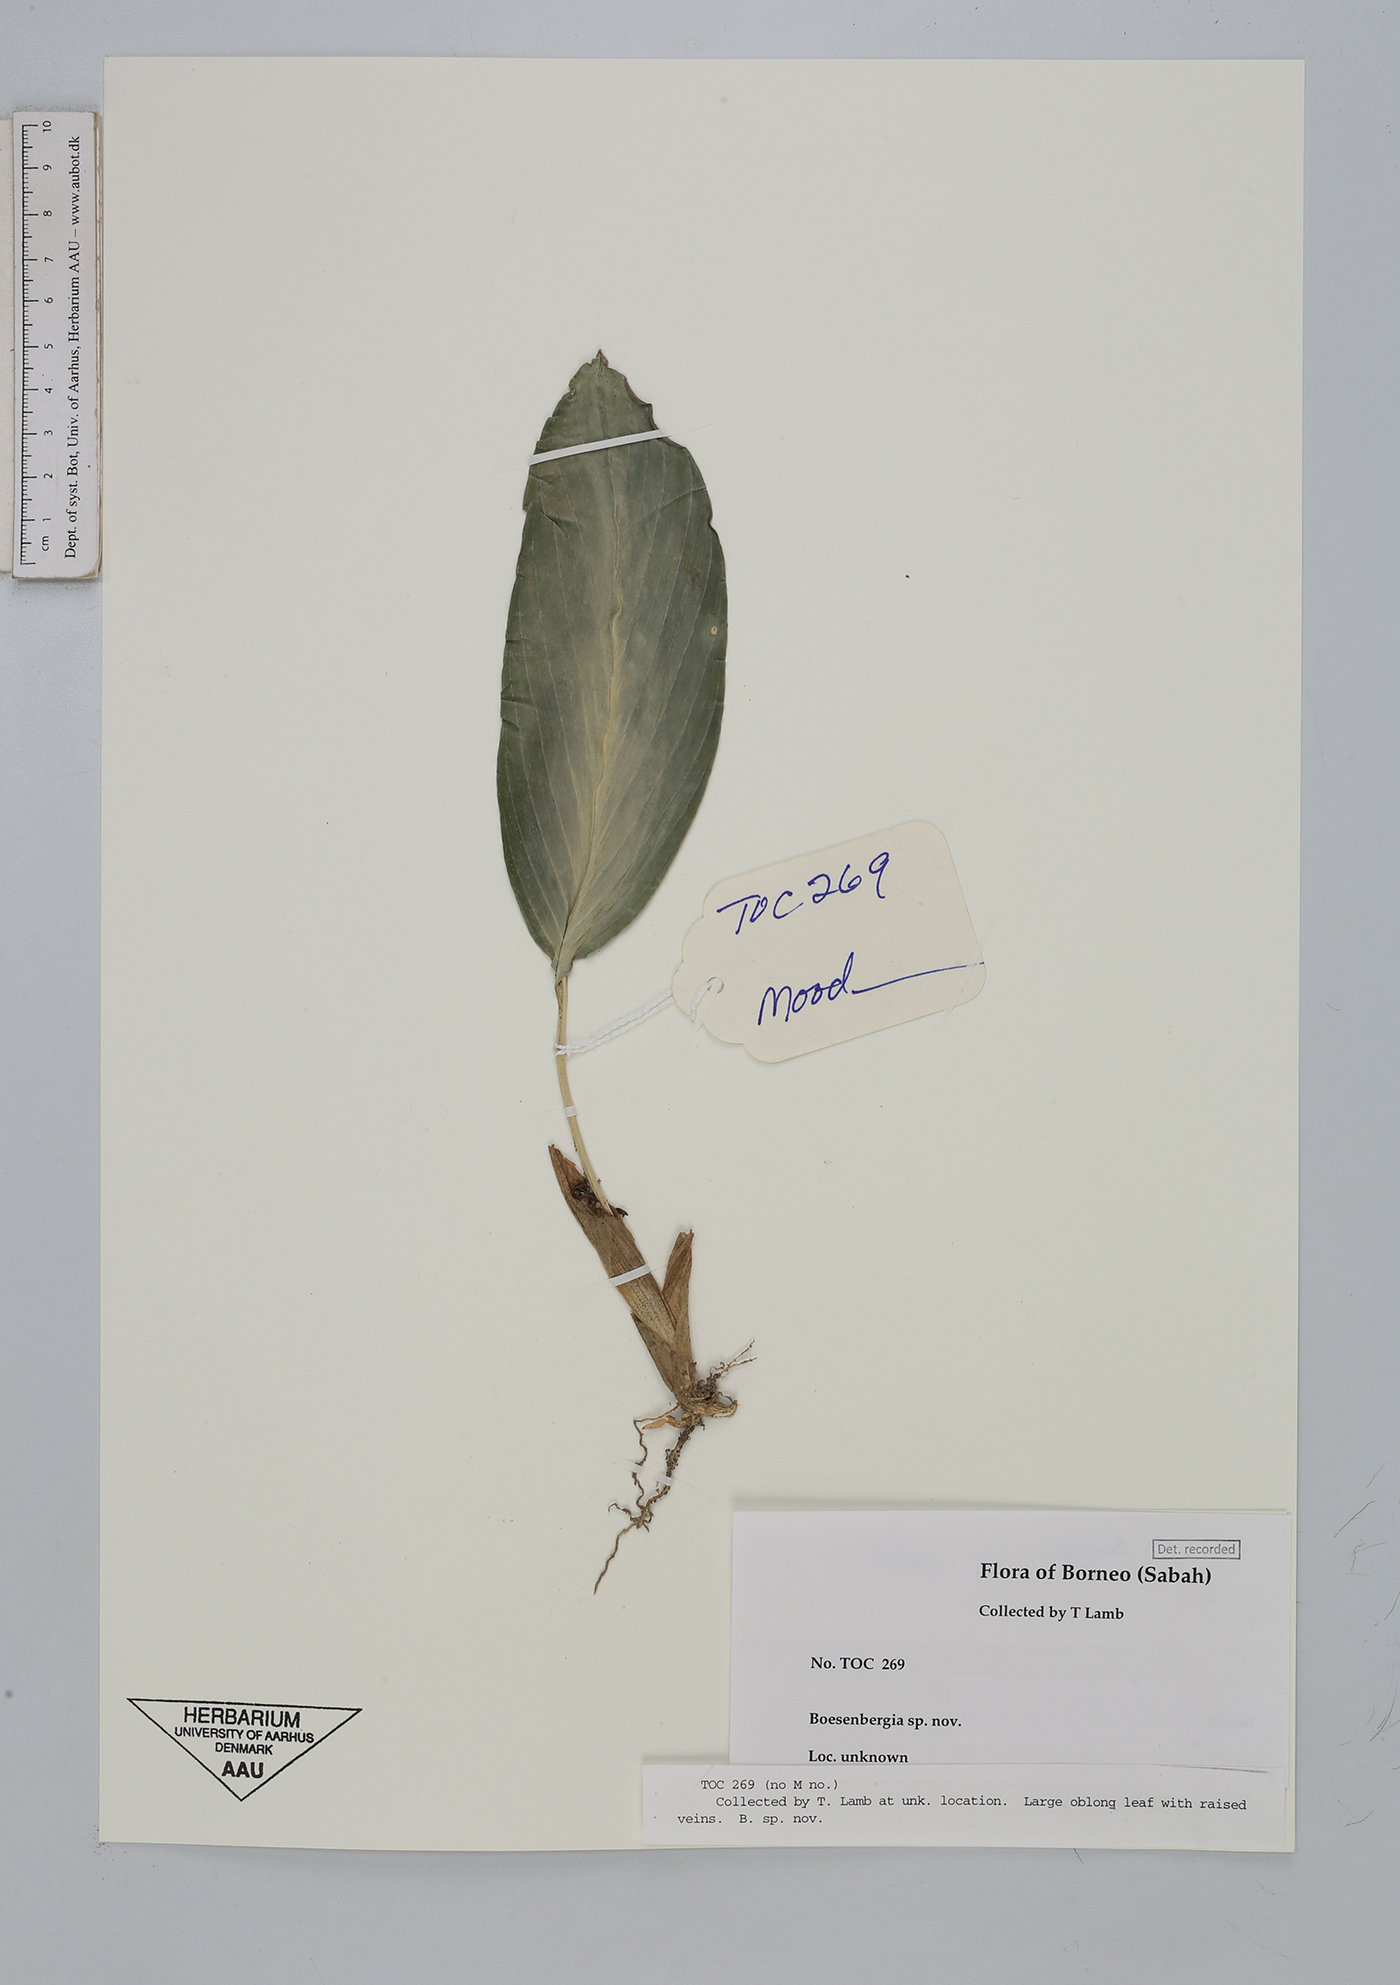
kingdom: Plantae
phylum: Tracheophyta
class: Liliopsida
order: Zingiberales
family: Zingiberaceae
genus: Boesenbergia
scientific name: Boesenbergia
